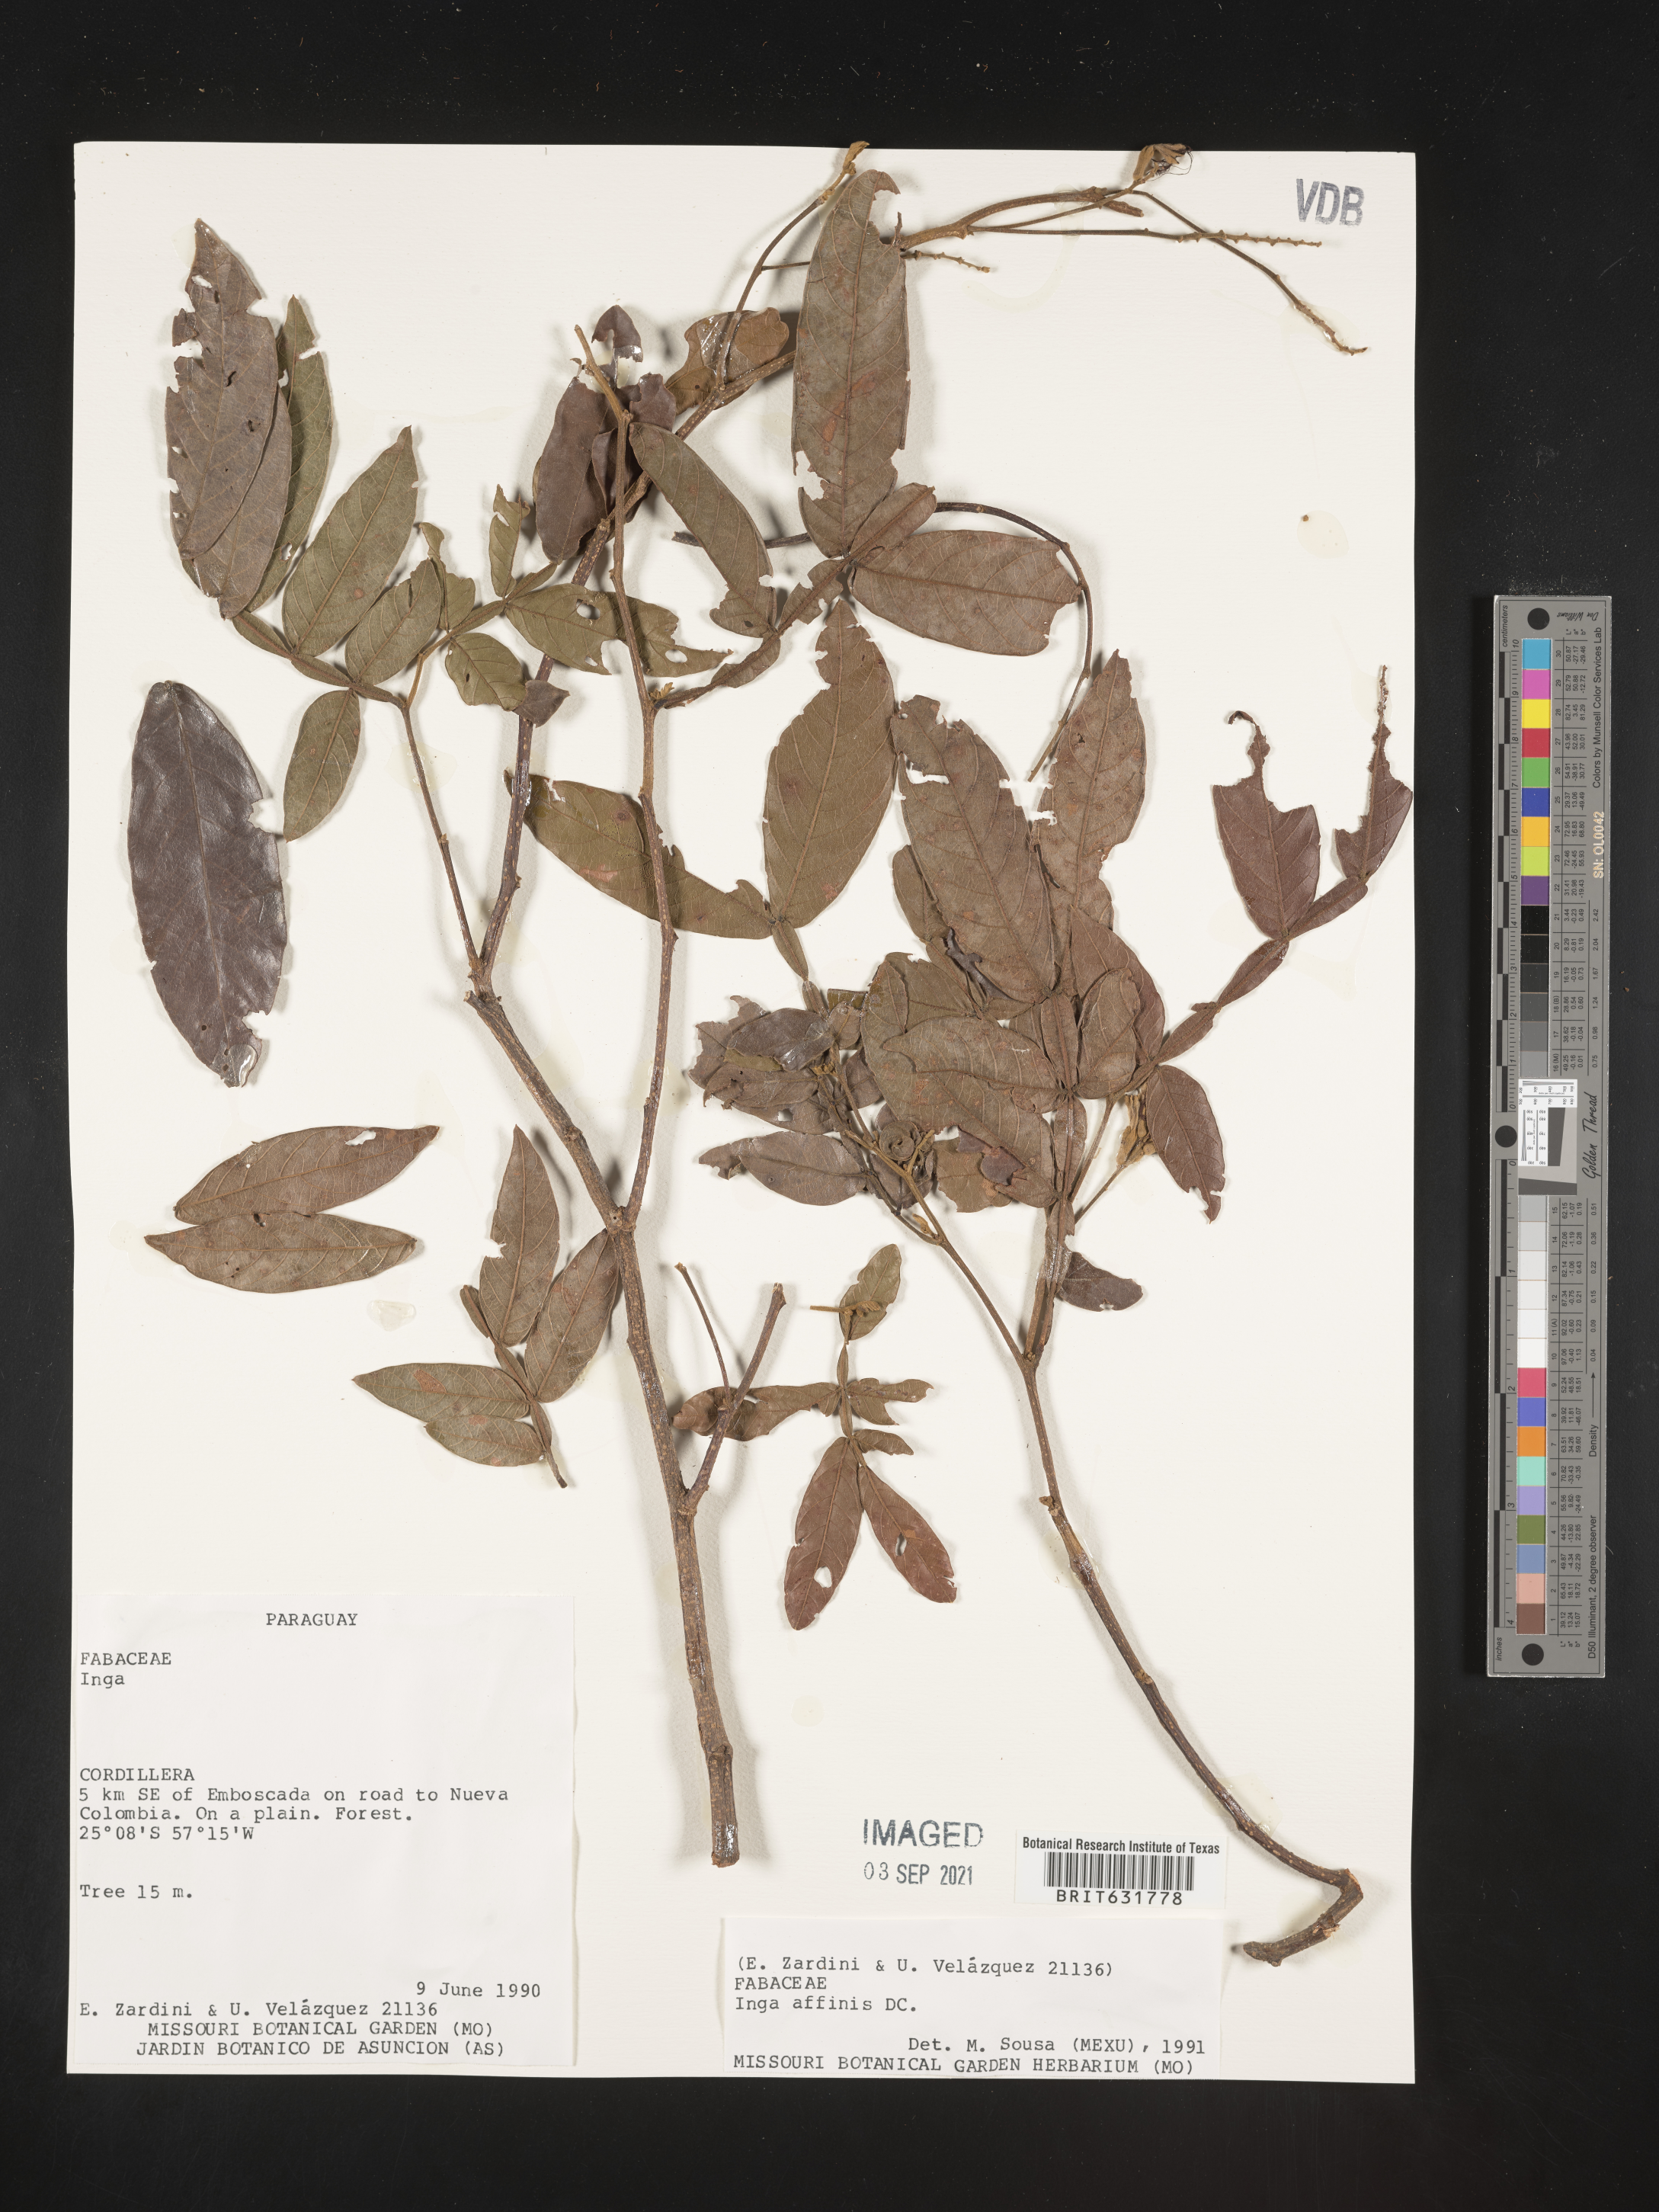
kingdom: Plantae
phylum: Tracheophyta
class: Magnoliopsida
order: Fabales
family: Fabaceae
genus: Inga
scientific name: Inga
